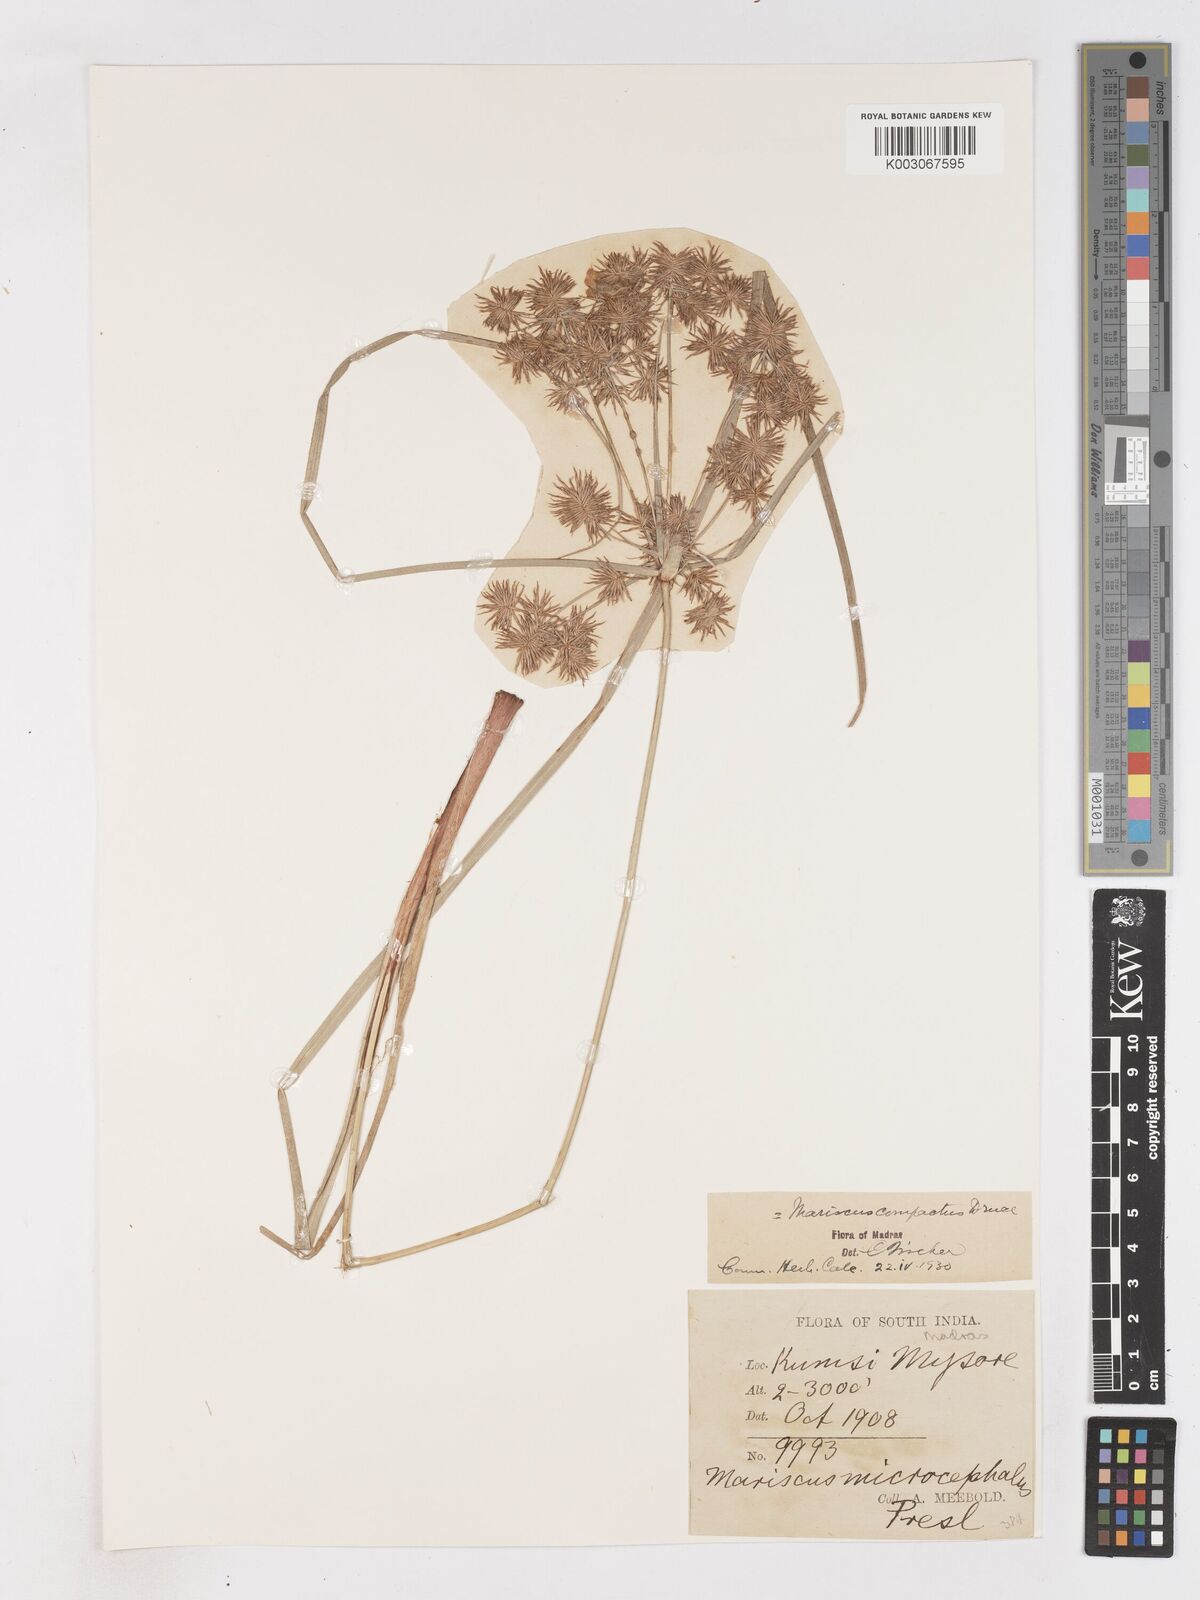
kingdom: Plantae
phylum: Tracheophyta
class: Liliopsida
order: Poales
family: Cyperaceae
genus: Cyperus
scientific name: Cyperus compactus
